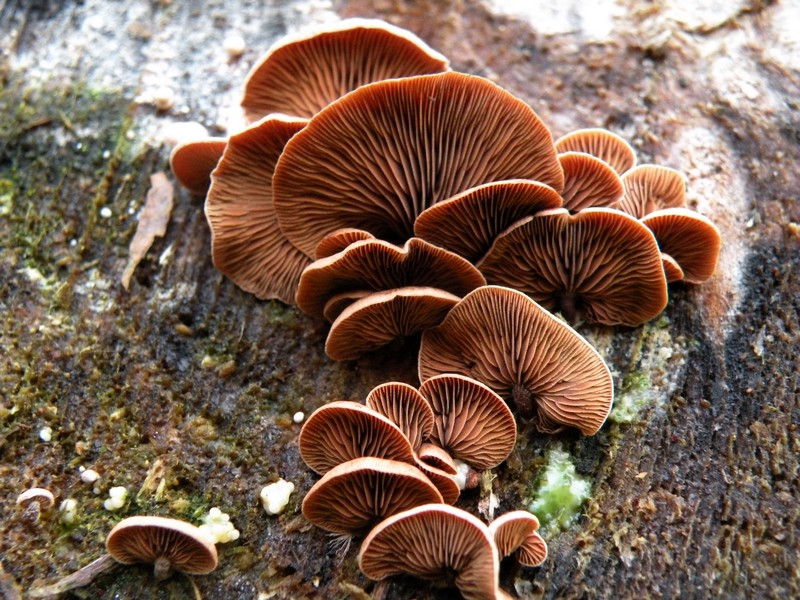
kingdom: Fungi
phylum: Basidiomycota
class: Agaricomycetes
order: Agaricales
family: Strophariaceae
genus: Deconica
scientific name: Deconica horizontalis
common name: ved-stråhat
